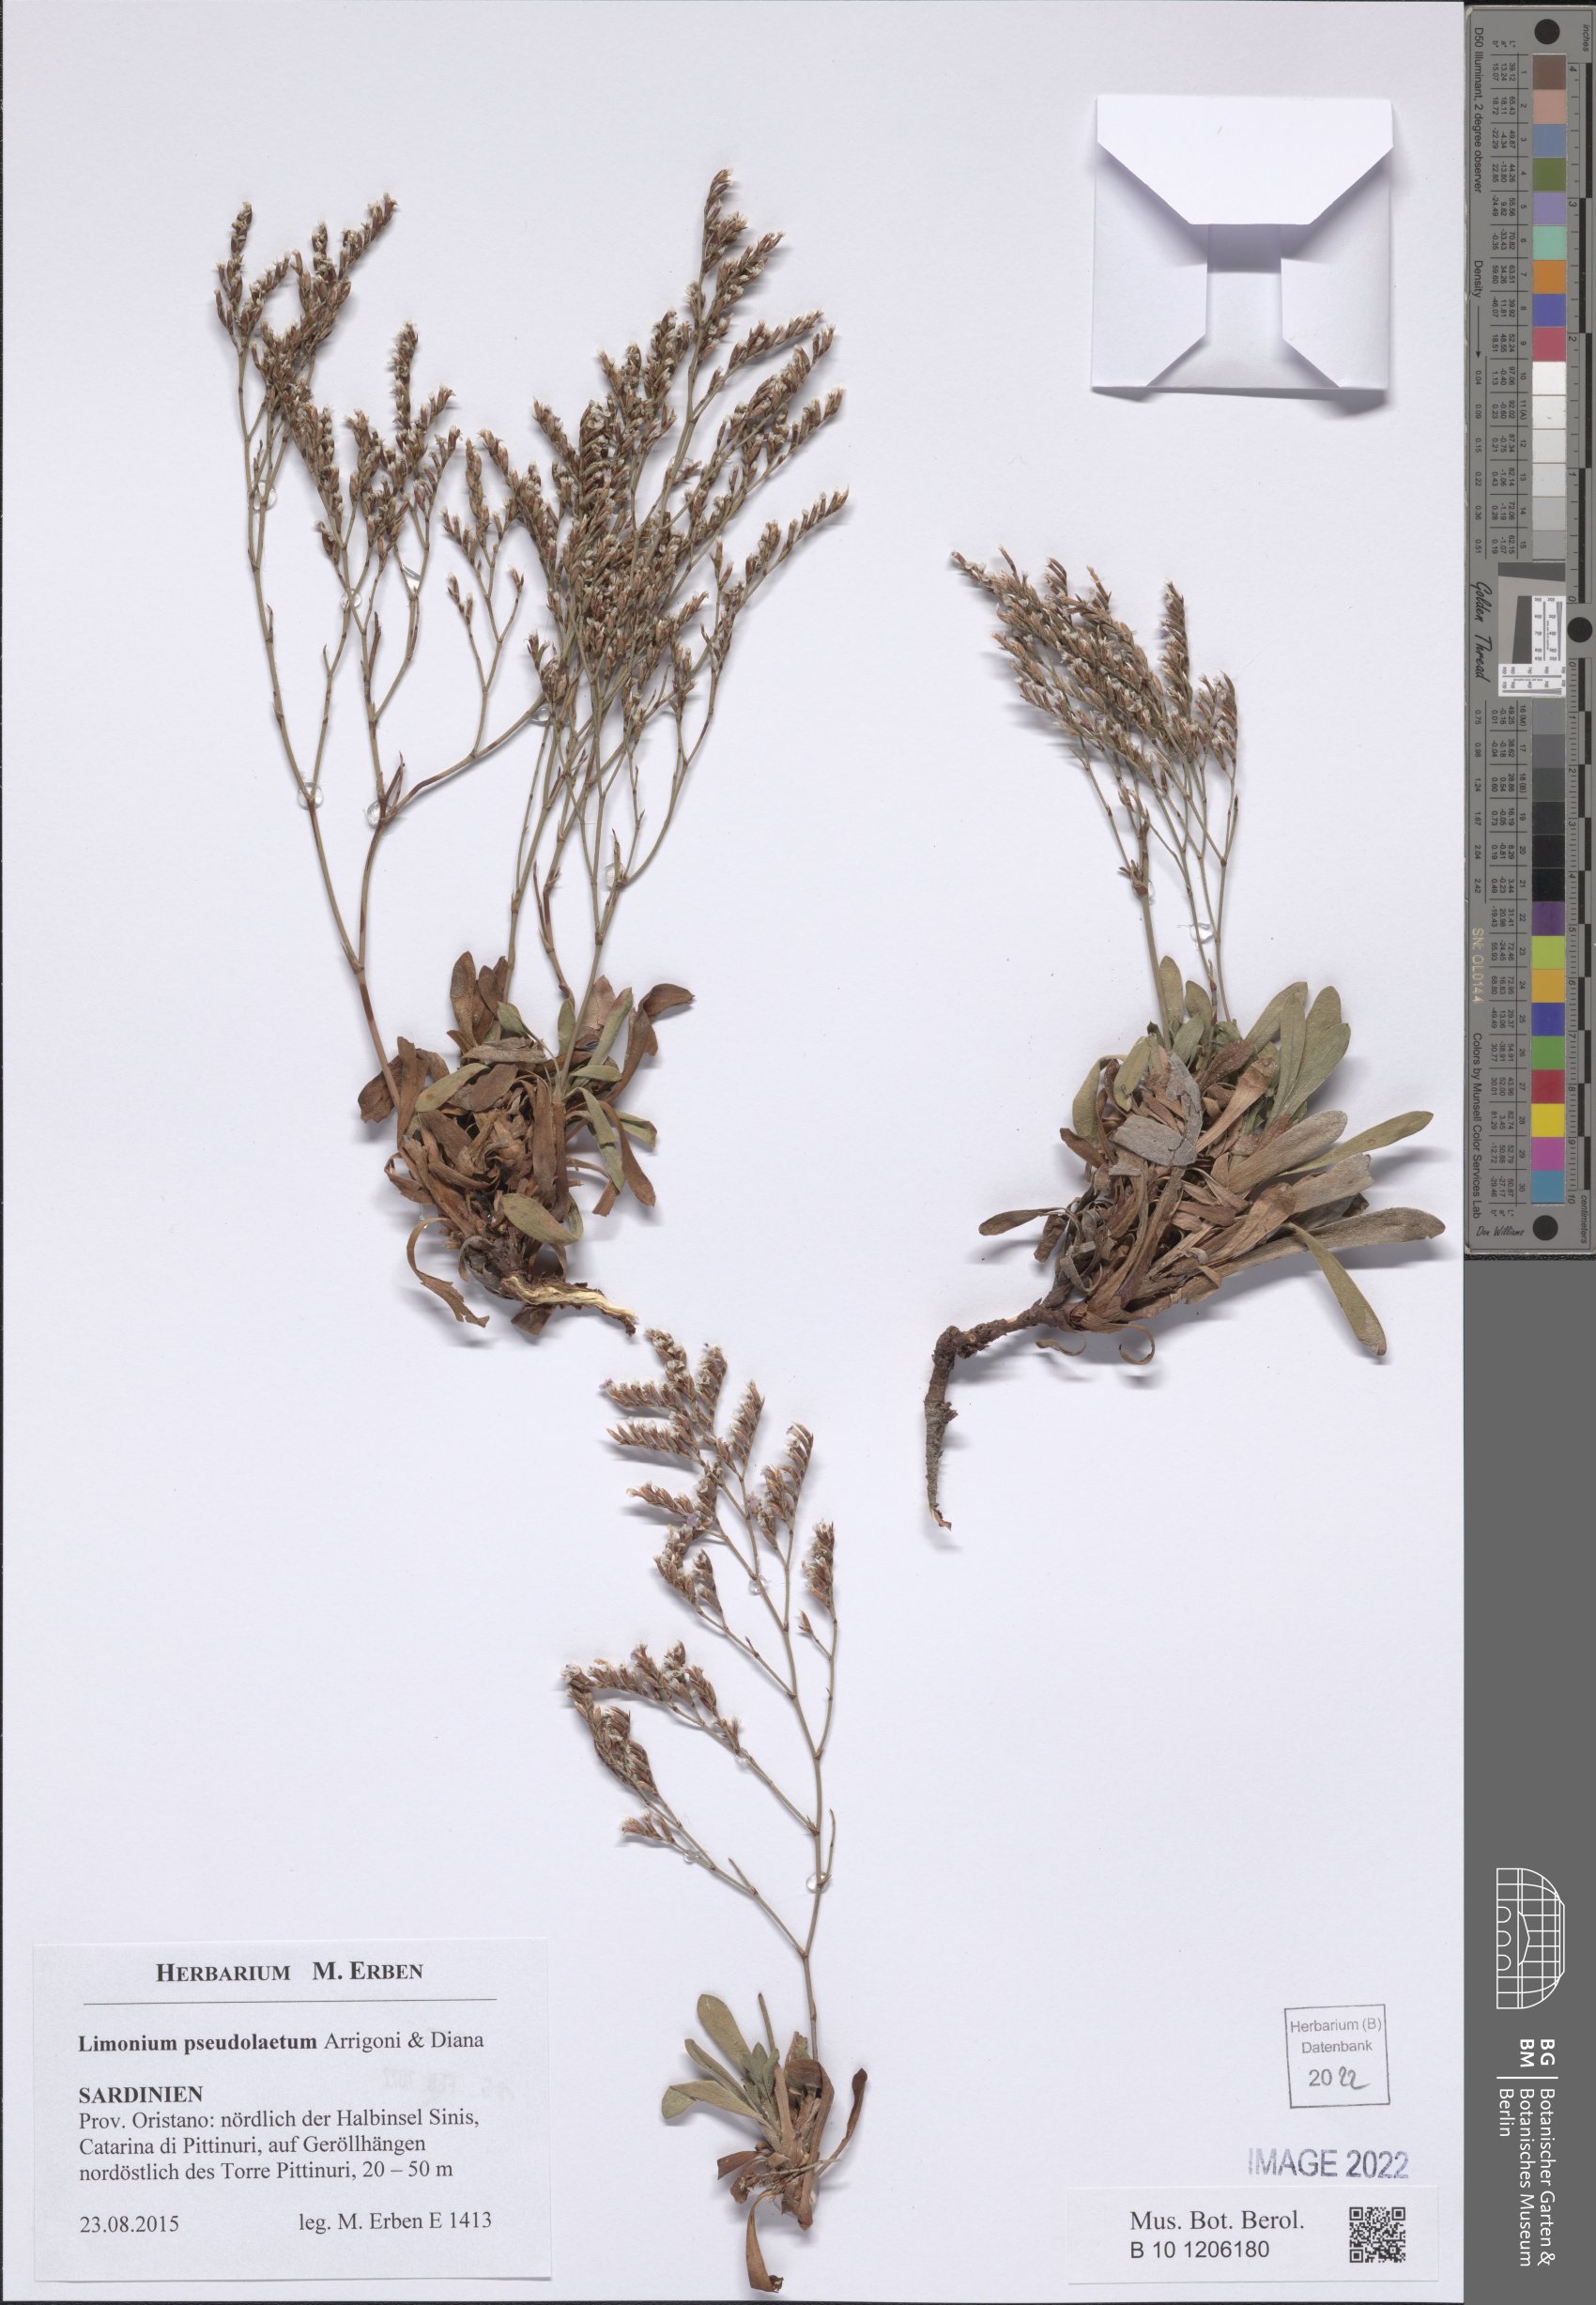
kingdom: Plantae
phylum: Tracheophyta
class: Magnoliopsida
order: Caryophyllales
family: Plumbaginaceae
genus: Limonium
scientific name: Limonium pseudolaetum
